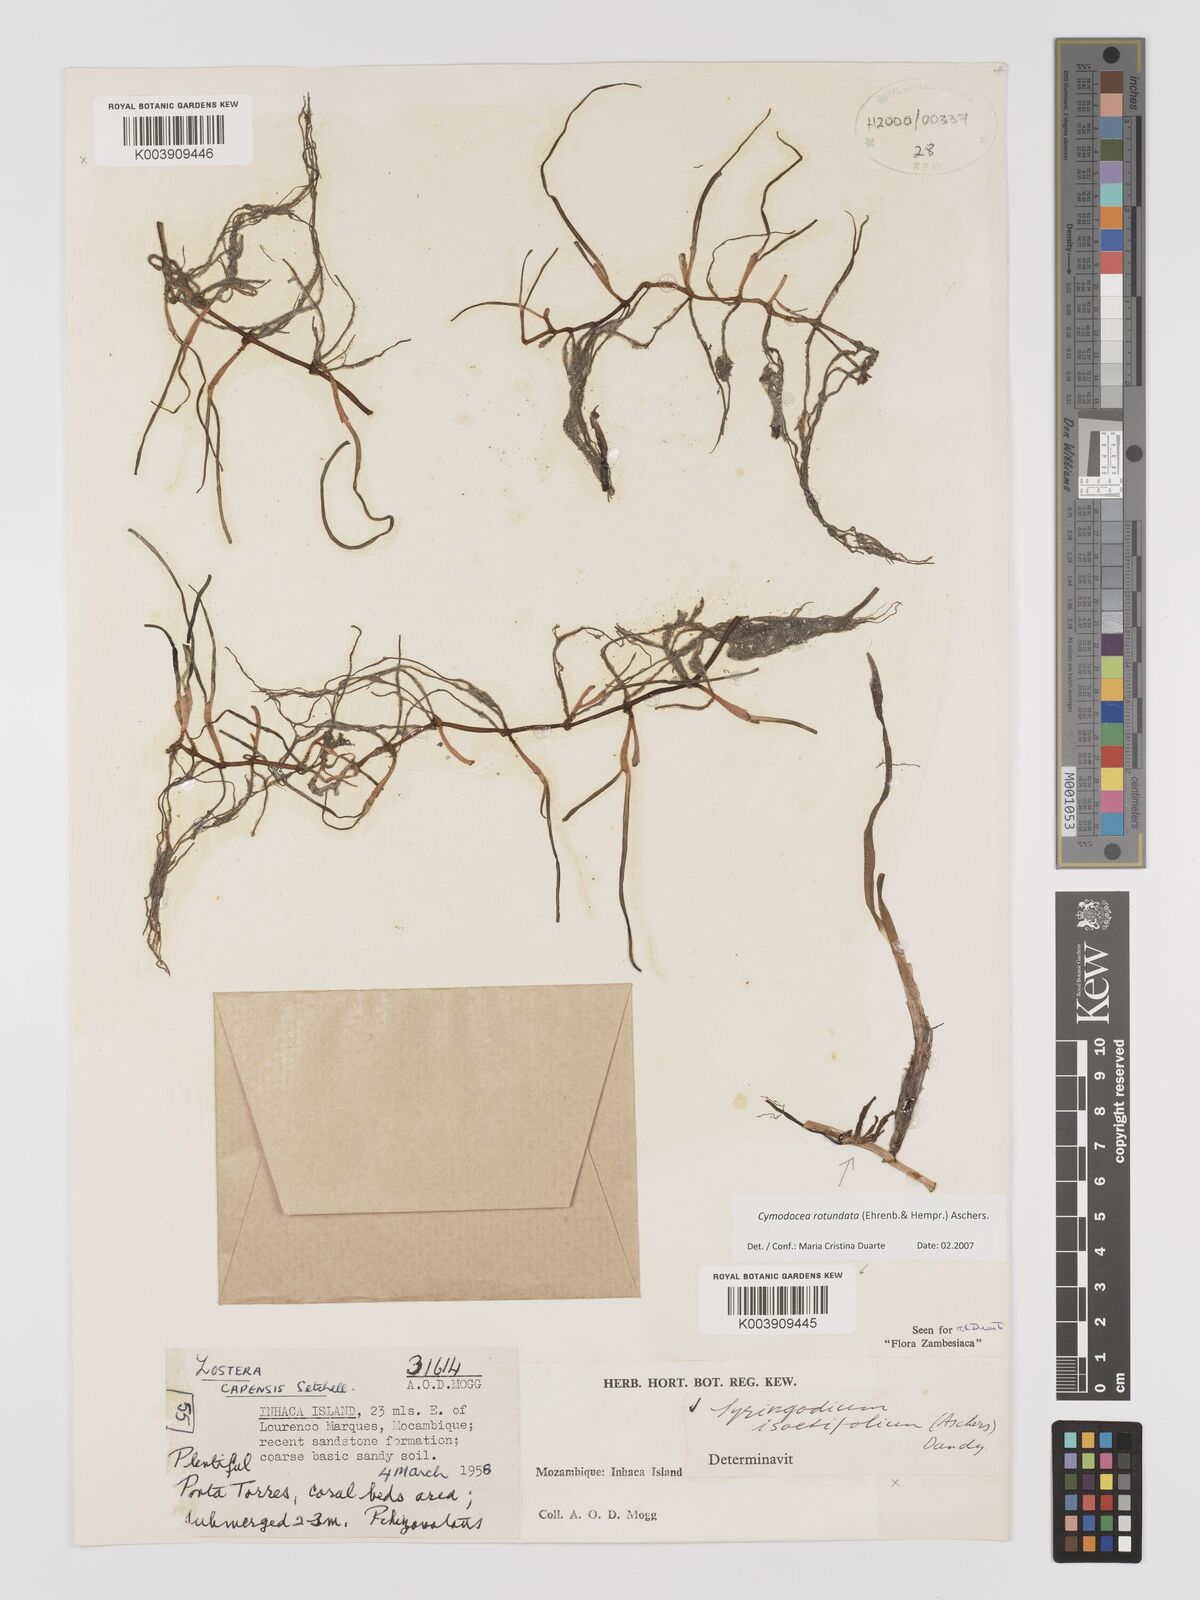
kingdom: Plantae
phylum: Tracheophyta
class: Liliopsida
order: Alismatales
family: Cymodoceaceae
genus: Cymodocea
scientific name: Cymodocea rotundata
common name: Species code: cr
